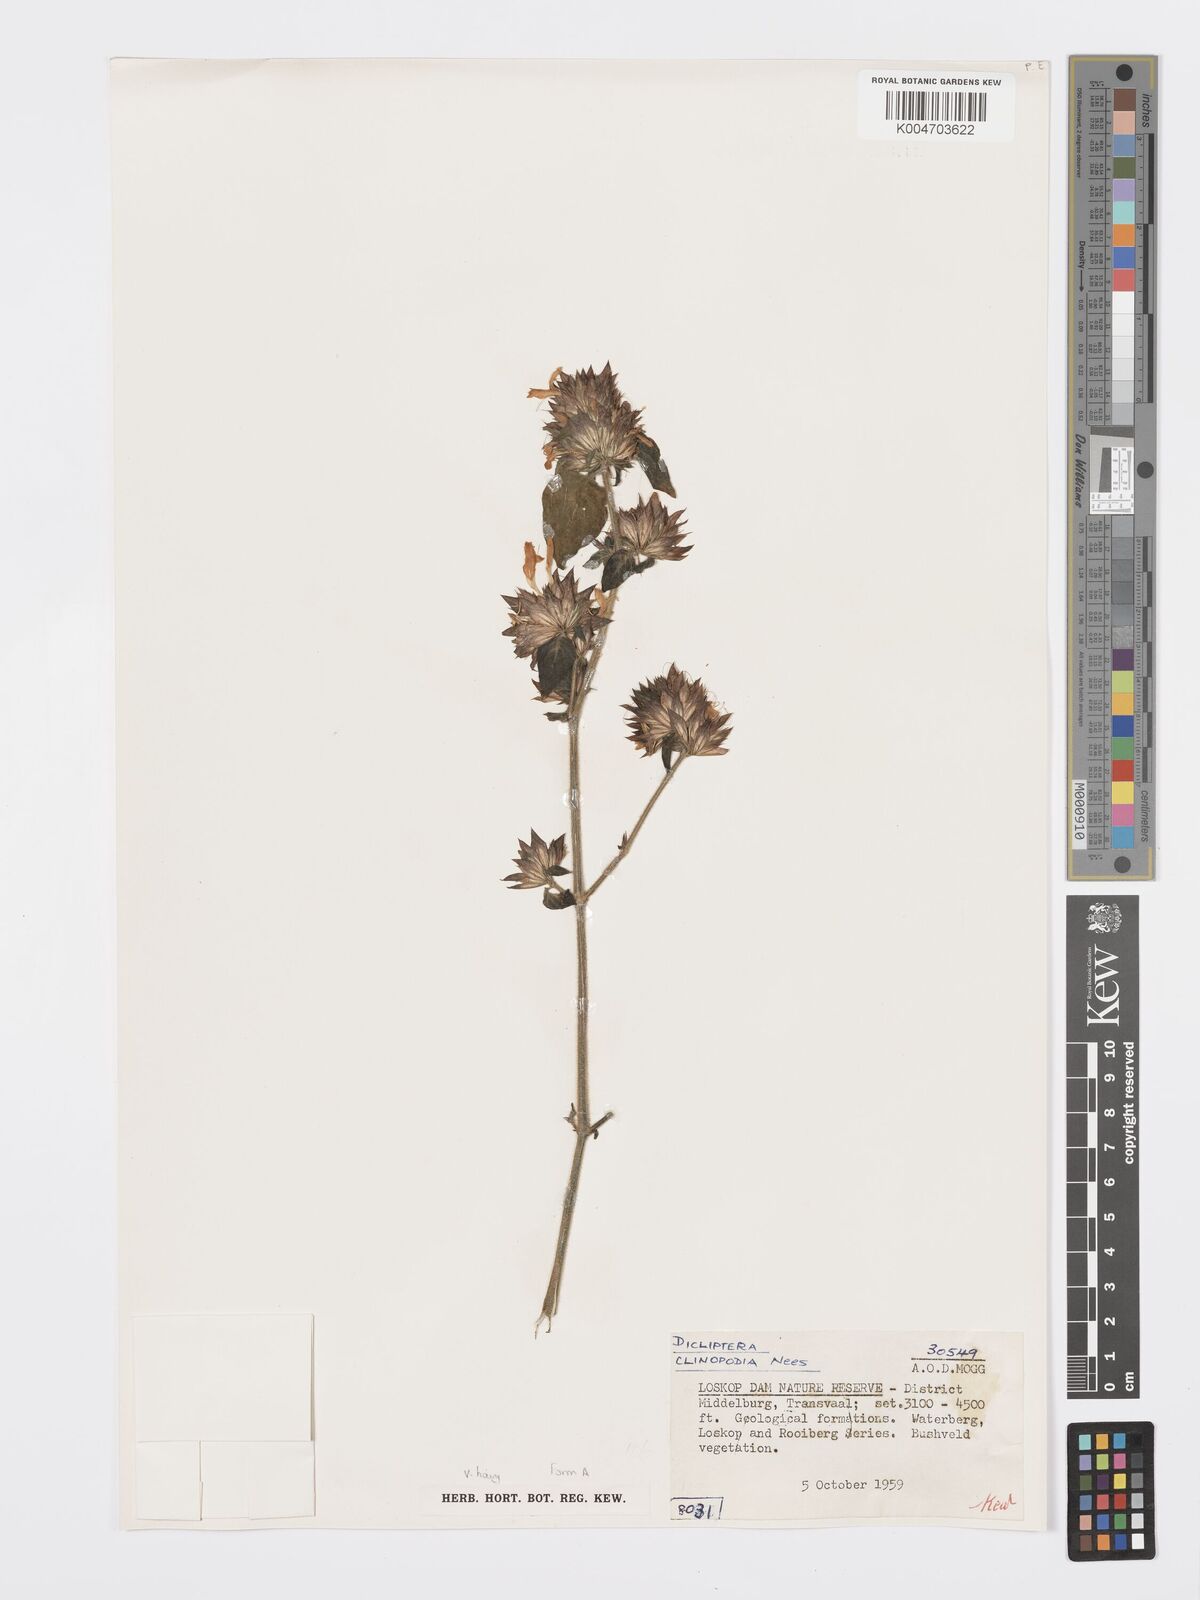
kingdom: Plantae
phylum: Tracheophyta
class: Magnoliopsida
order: Lamiales
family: Acanthaceae
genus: Dicliptera
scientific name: Dicliptera clinopodia
